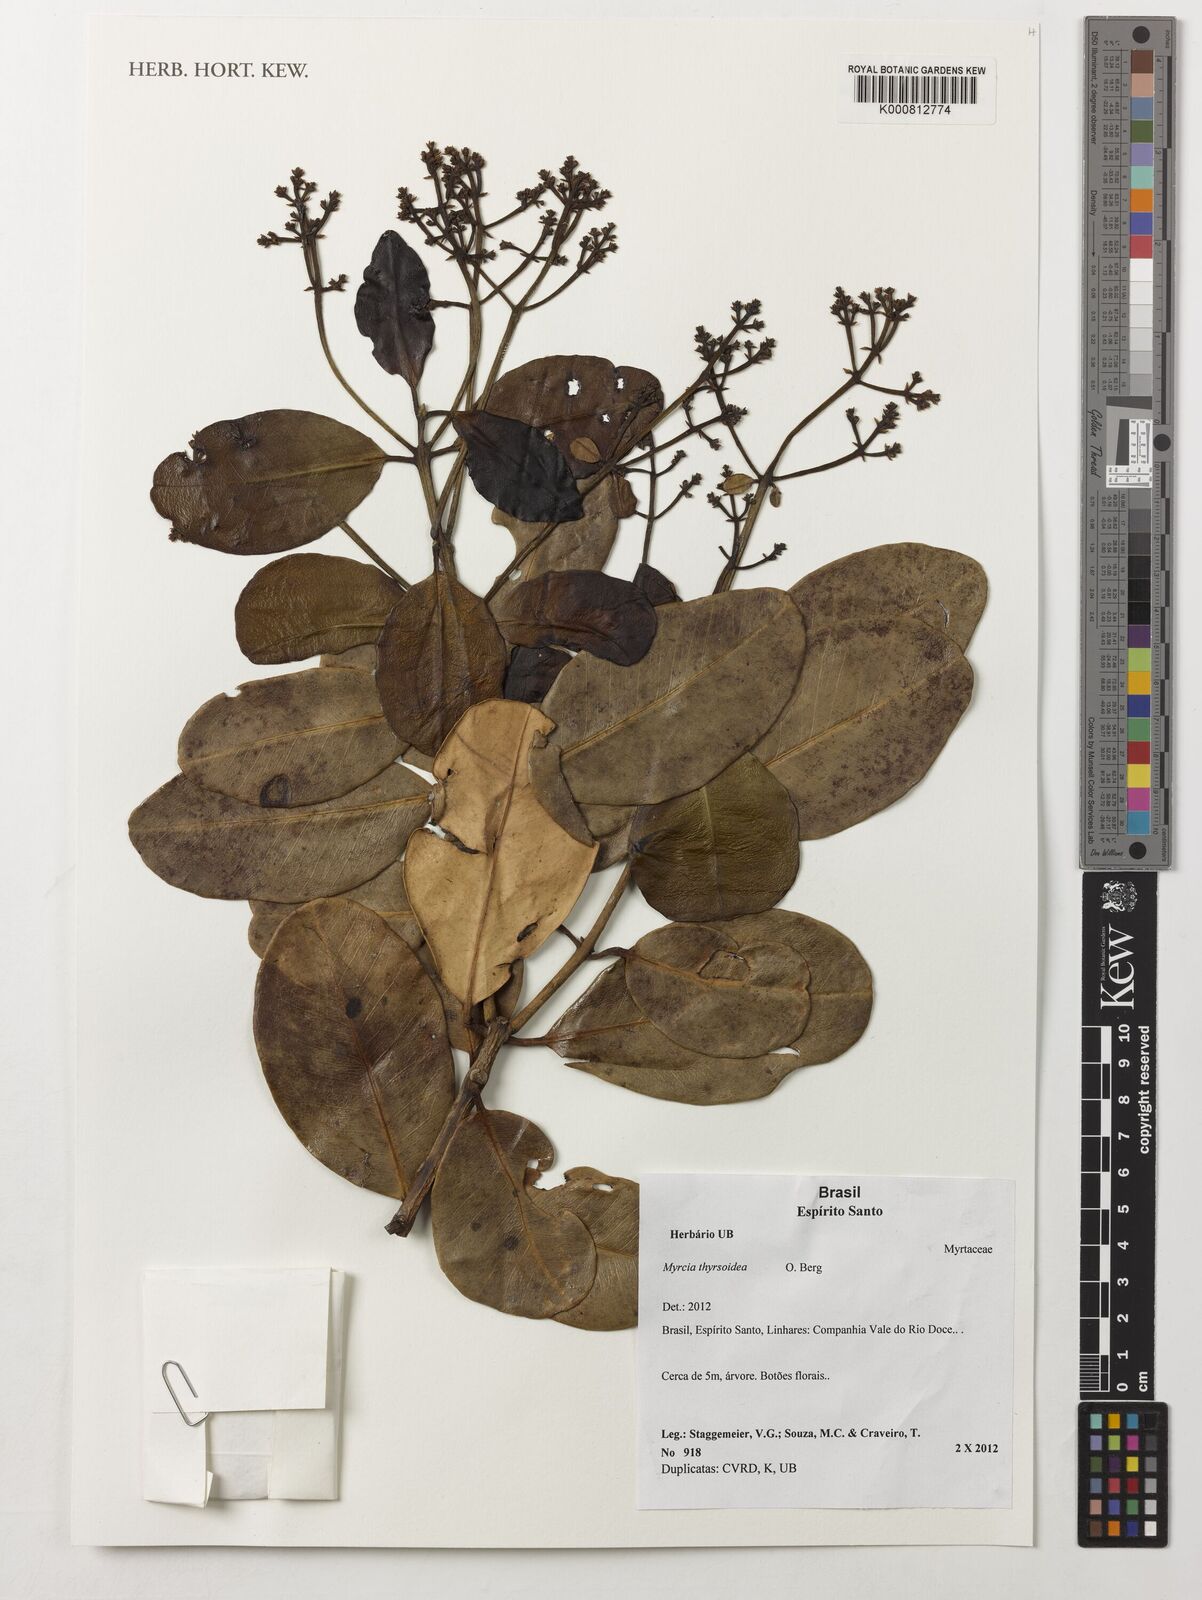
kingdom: Plantae
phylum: Tracheophyta
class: Magnoliopsida
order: Myrtales
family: Myrtaceae
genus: Myrcia
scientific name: Myrcia thyrsoidea
